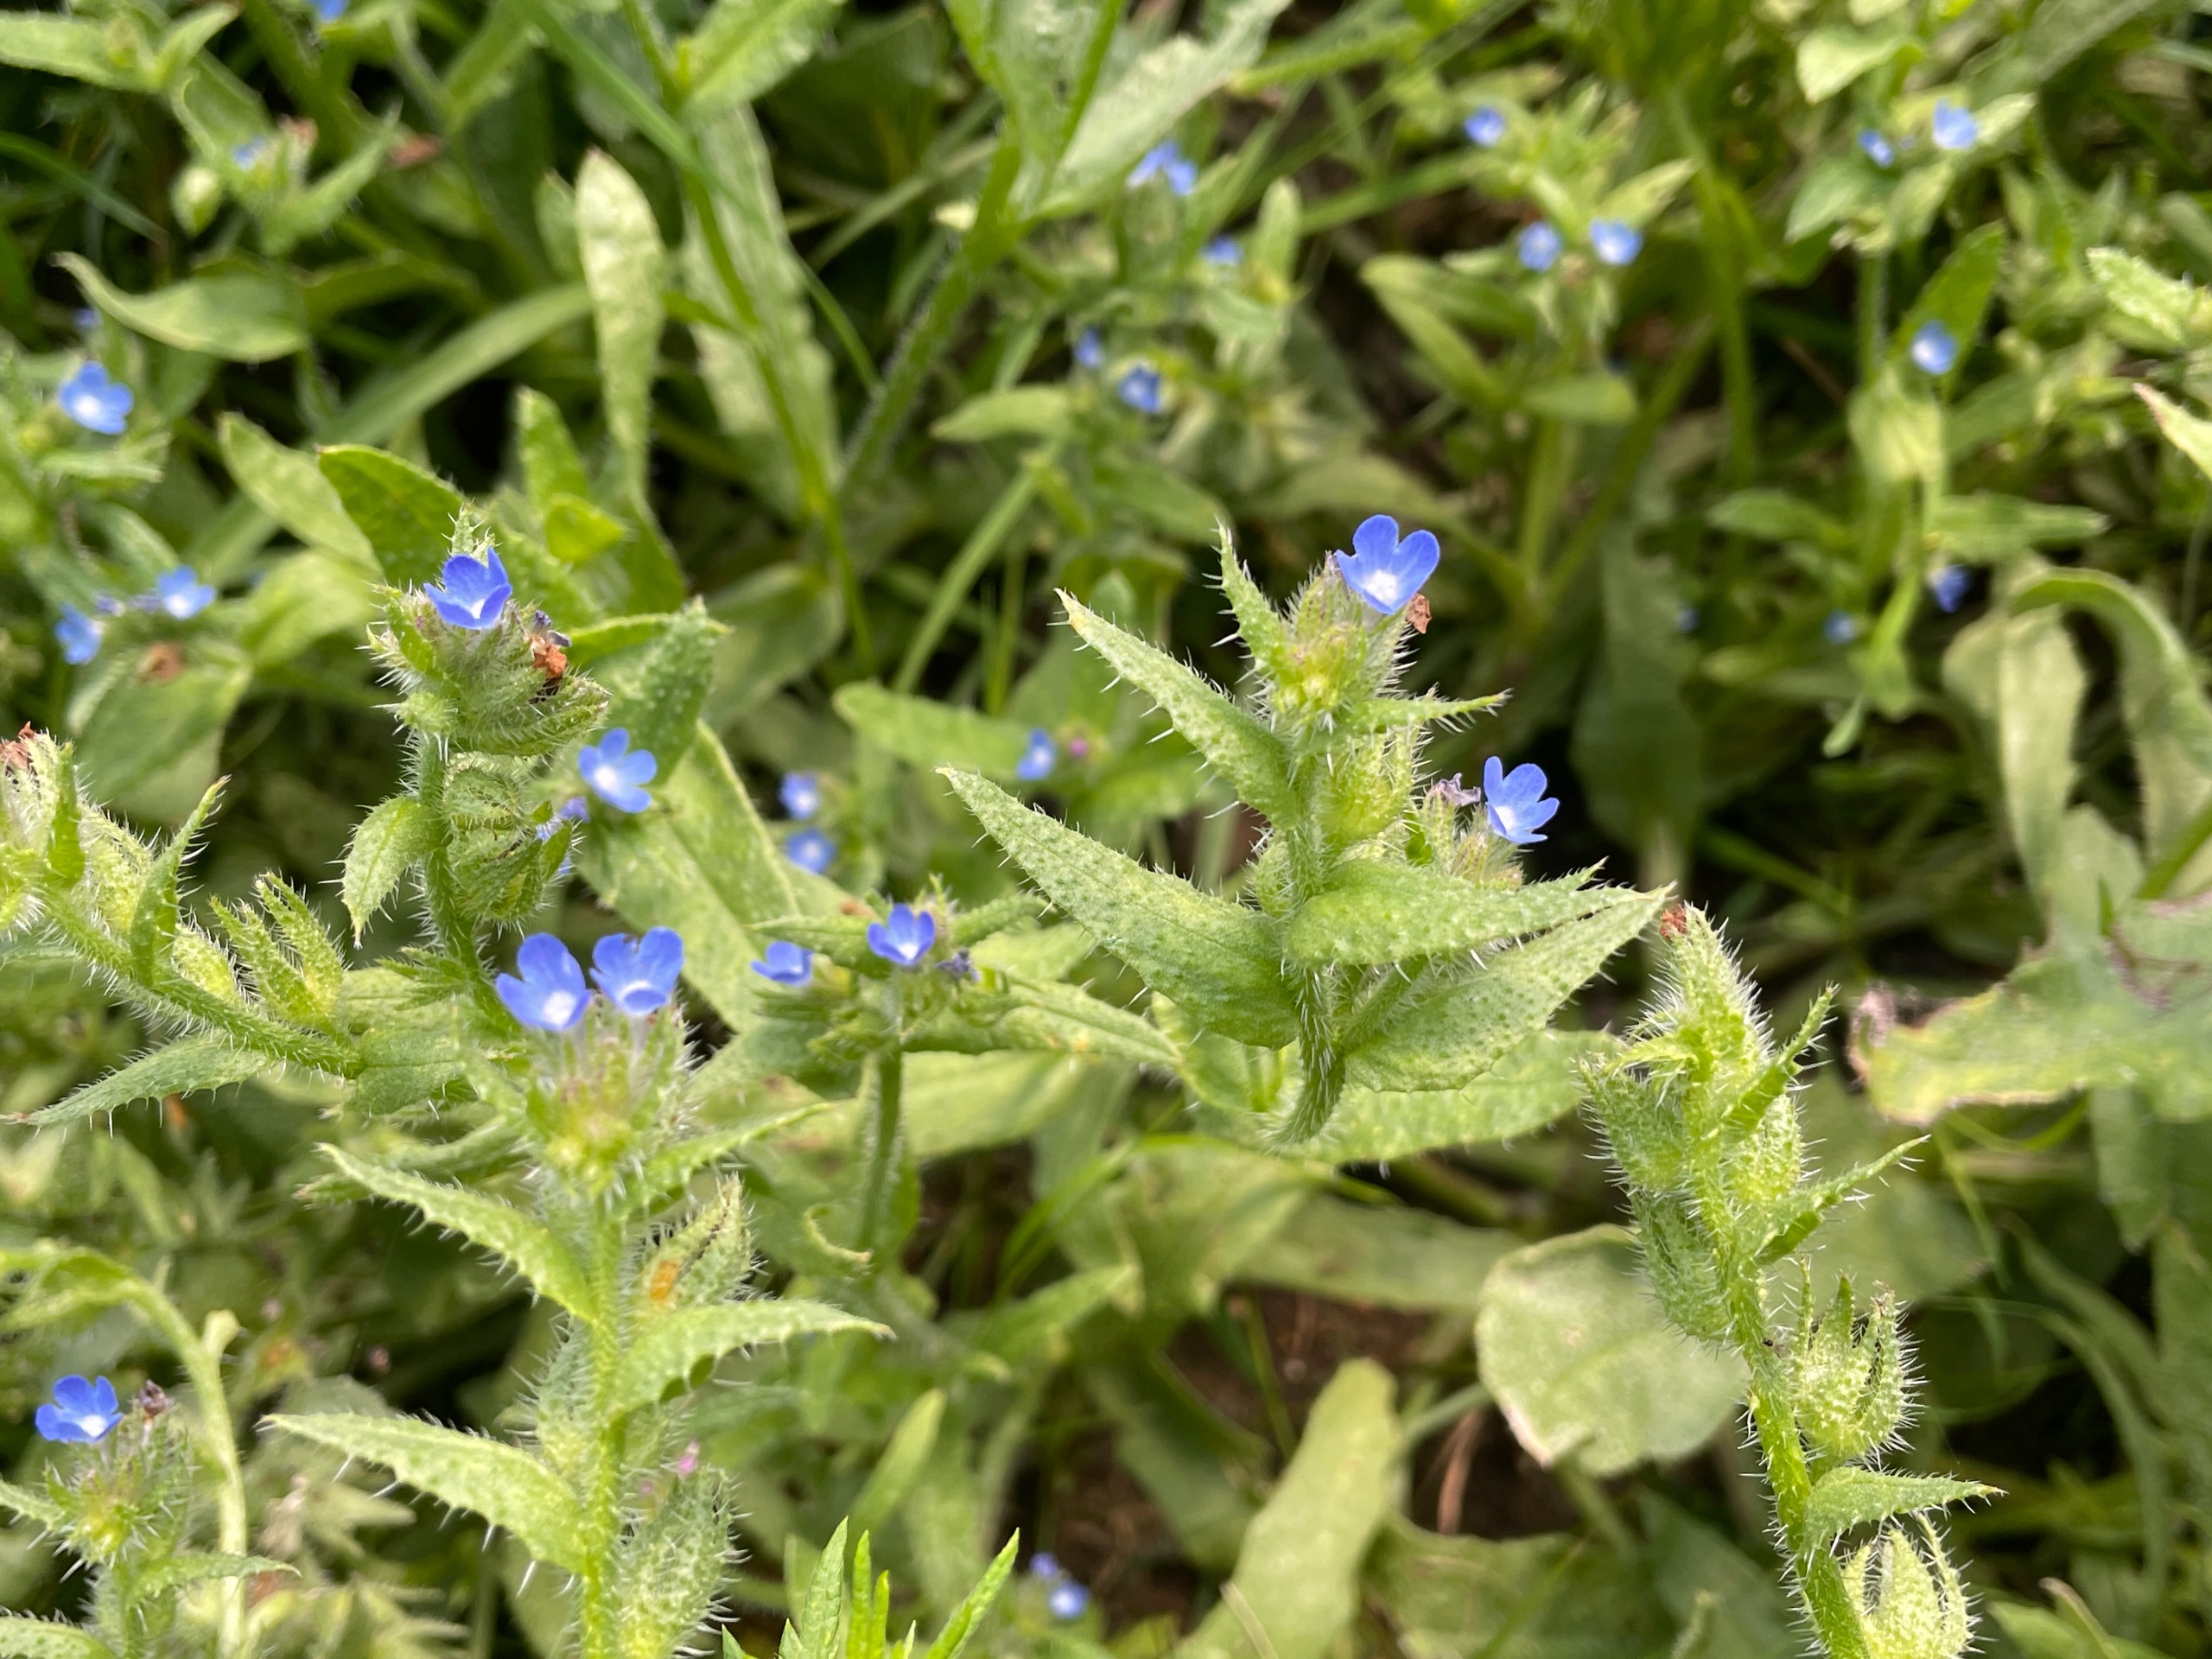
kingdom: Plantae
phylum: Tracheophyta
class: Magnoliopsida
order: Boraginales
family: Boraginaceae
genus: Lycopsis
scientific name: Lycopsis arvensis
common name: Krumhals
